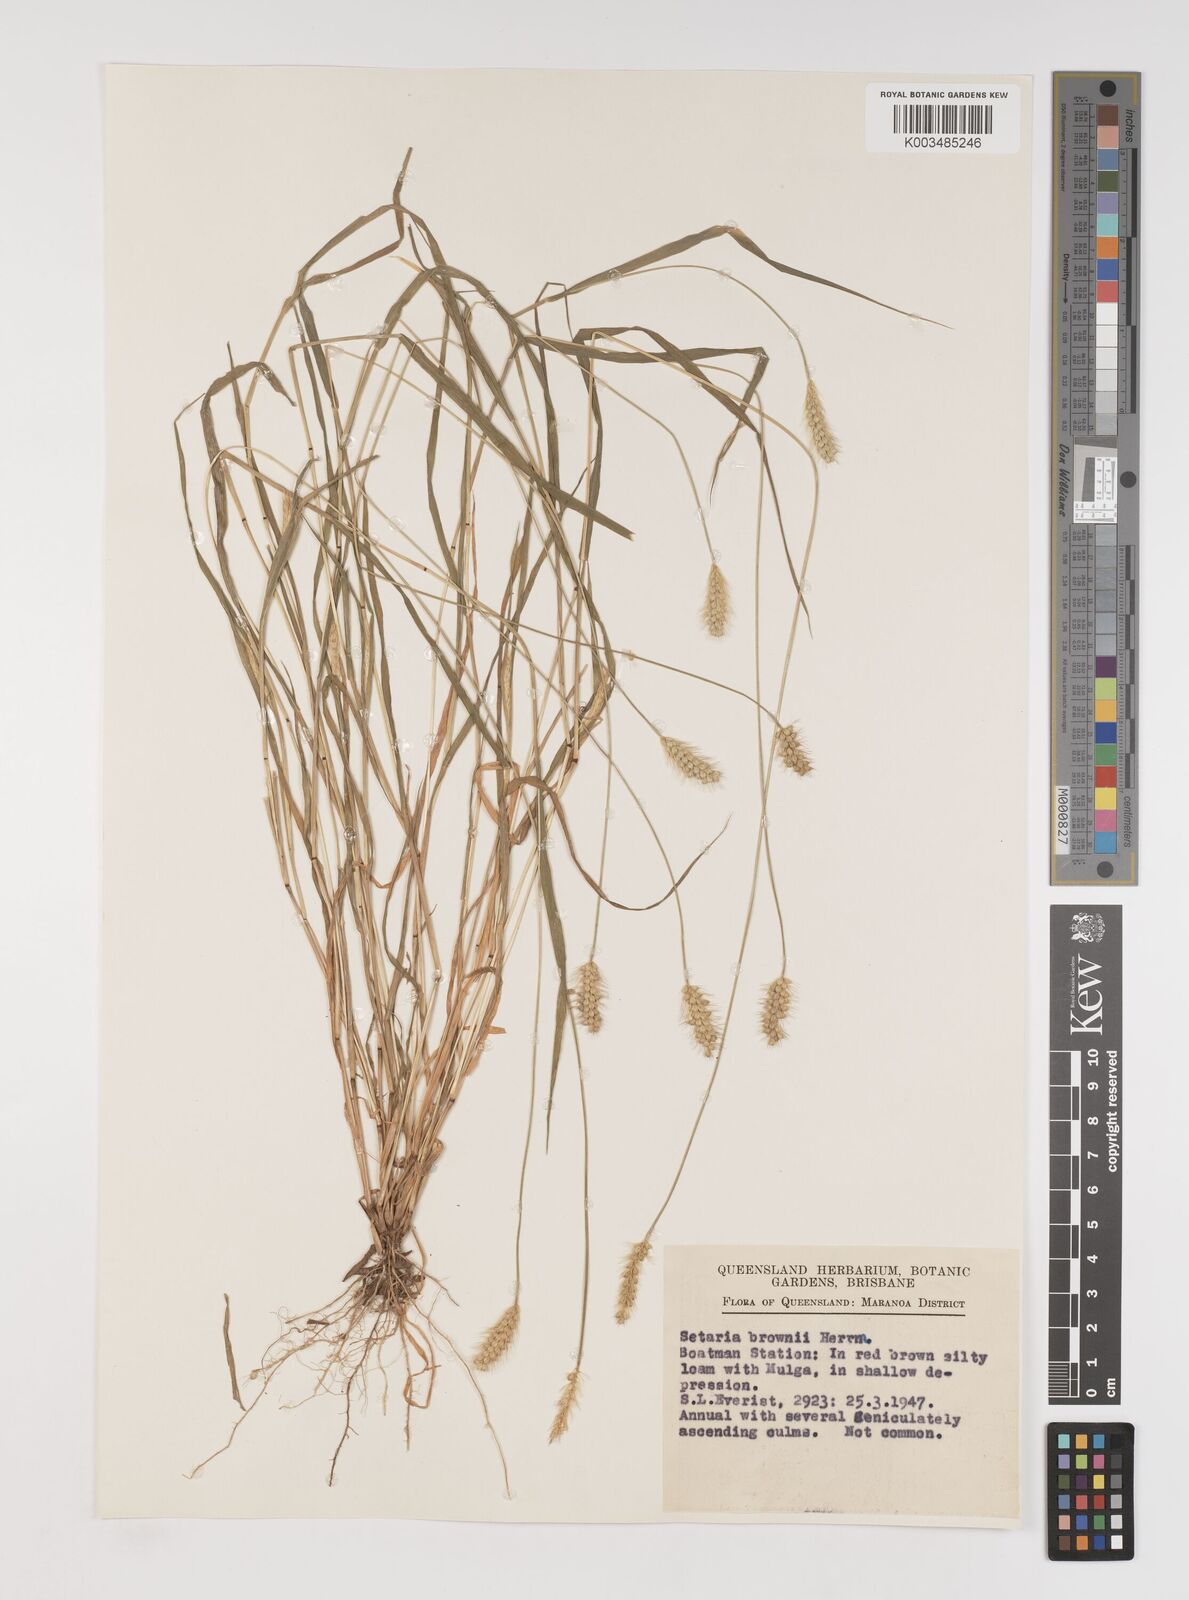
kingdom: Plantae
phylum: Tracheophyta
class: Liliopsida
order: Poales
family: Poaceae
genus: Setaria
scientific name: Setaria surgens
